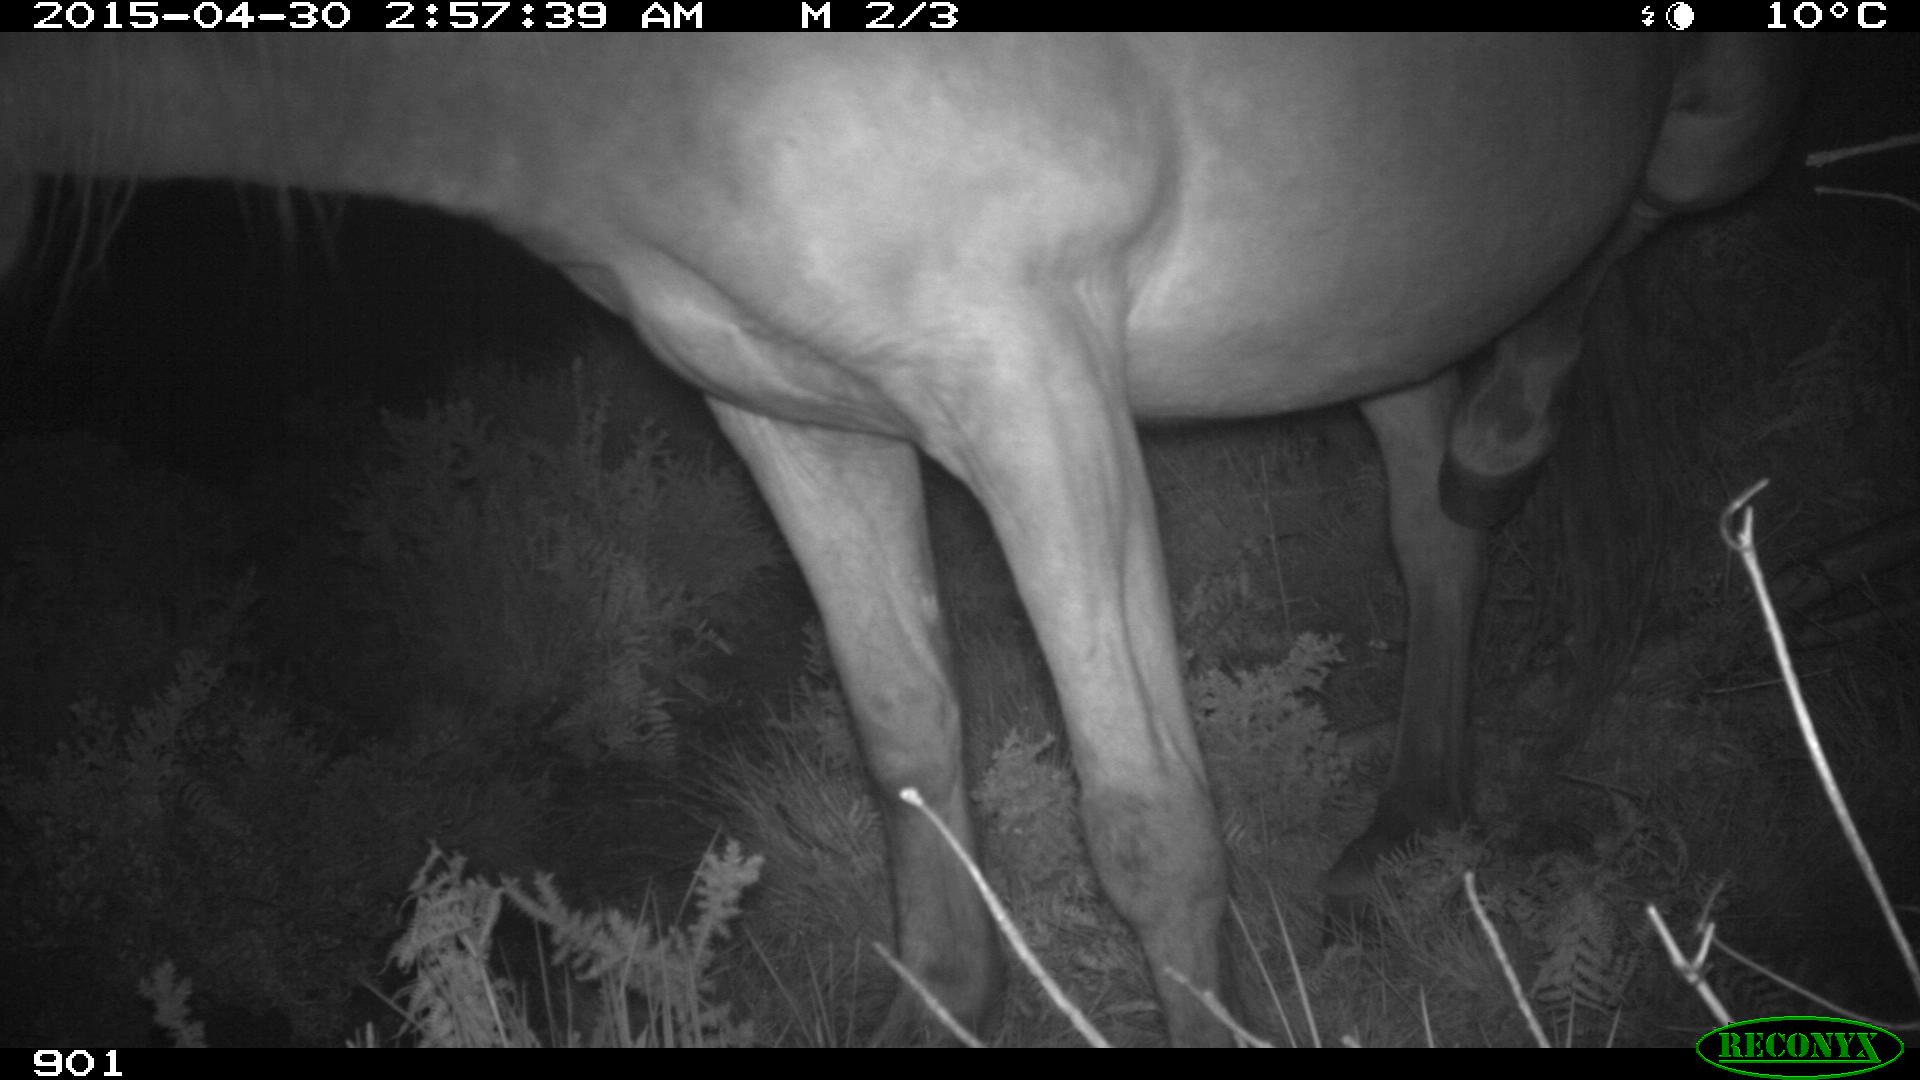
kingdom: Animalia
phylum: Chordata
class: Mammalia
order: Perissodactyla
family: Equidae
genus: Equus
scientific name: Equus caballus
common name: Horse
